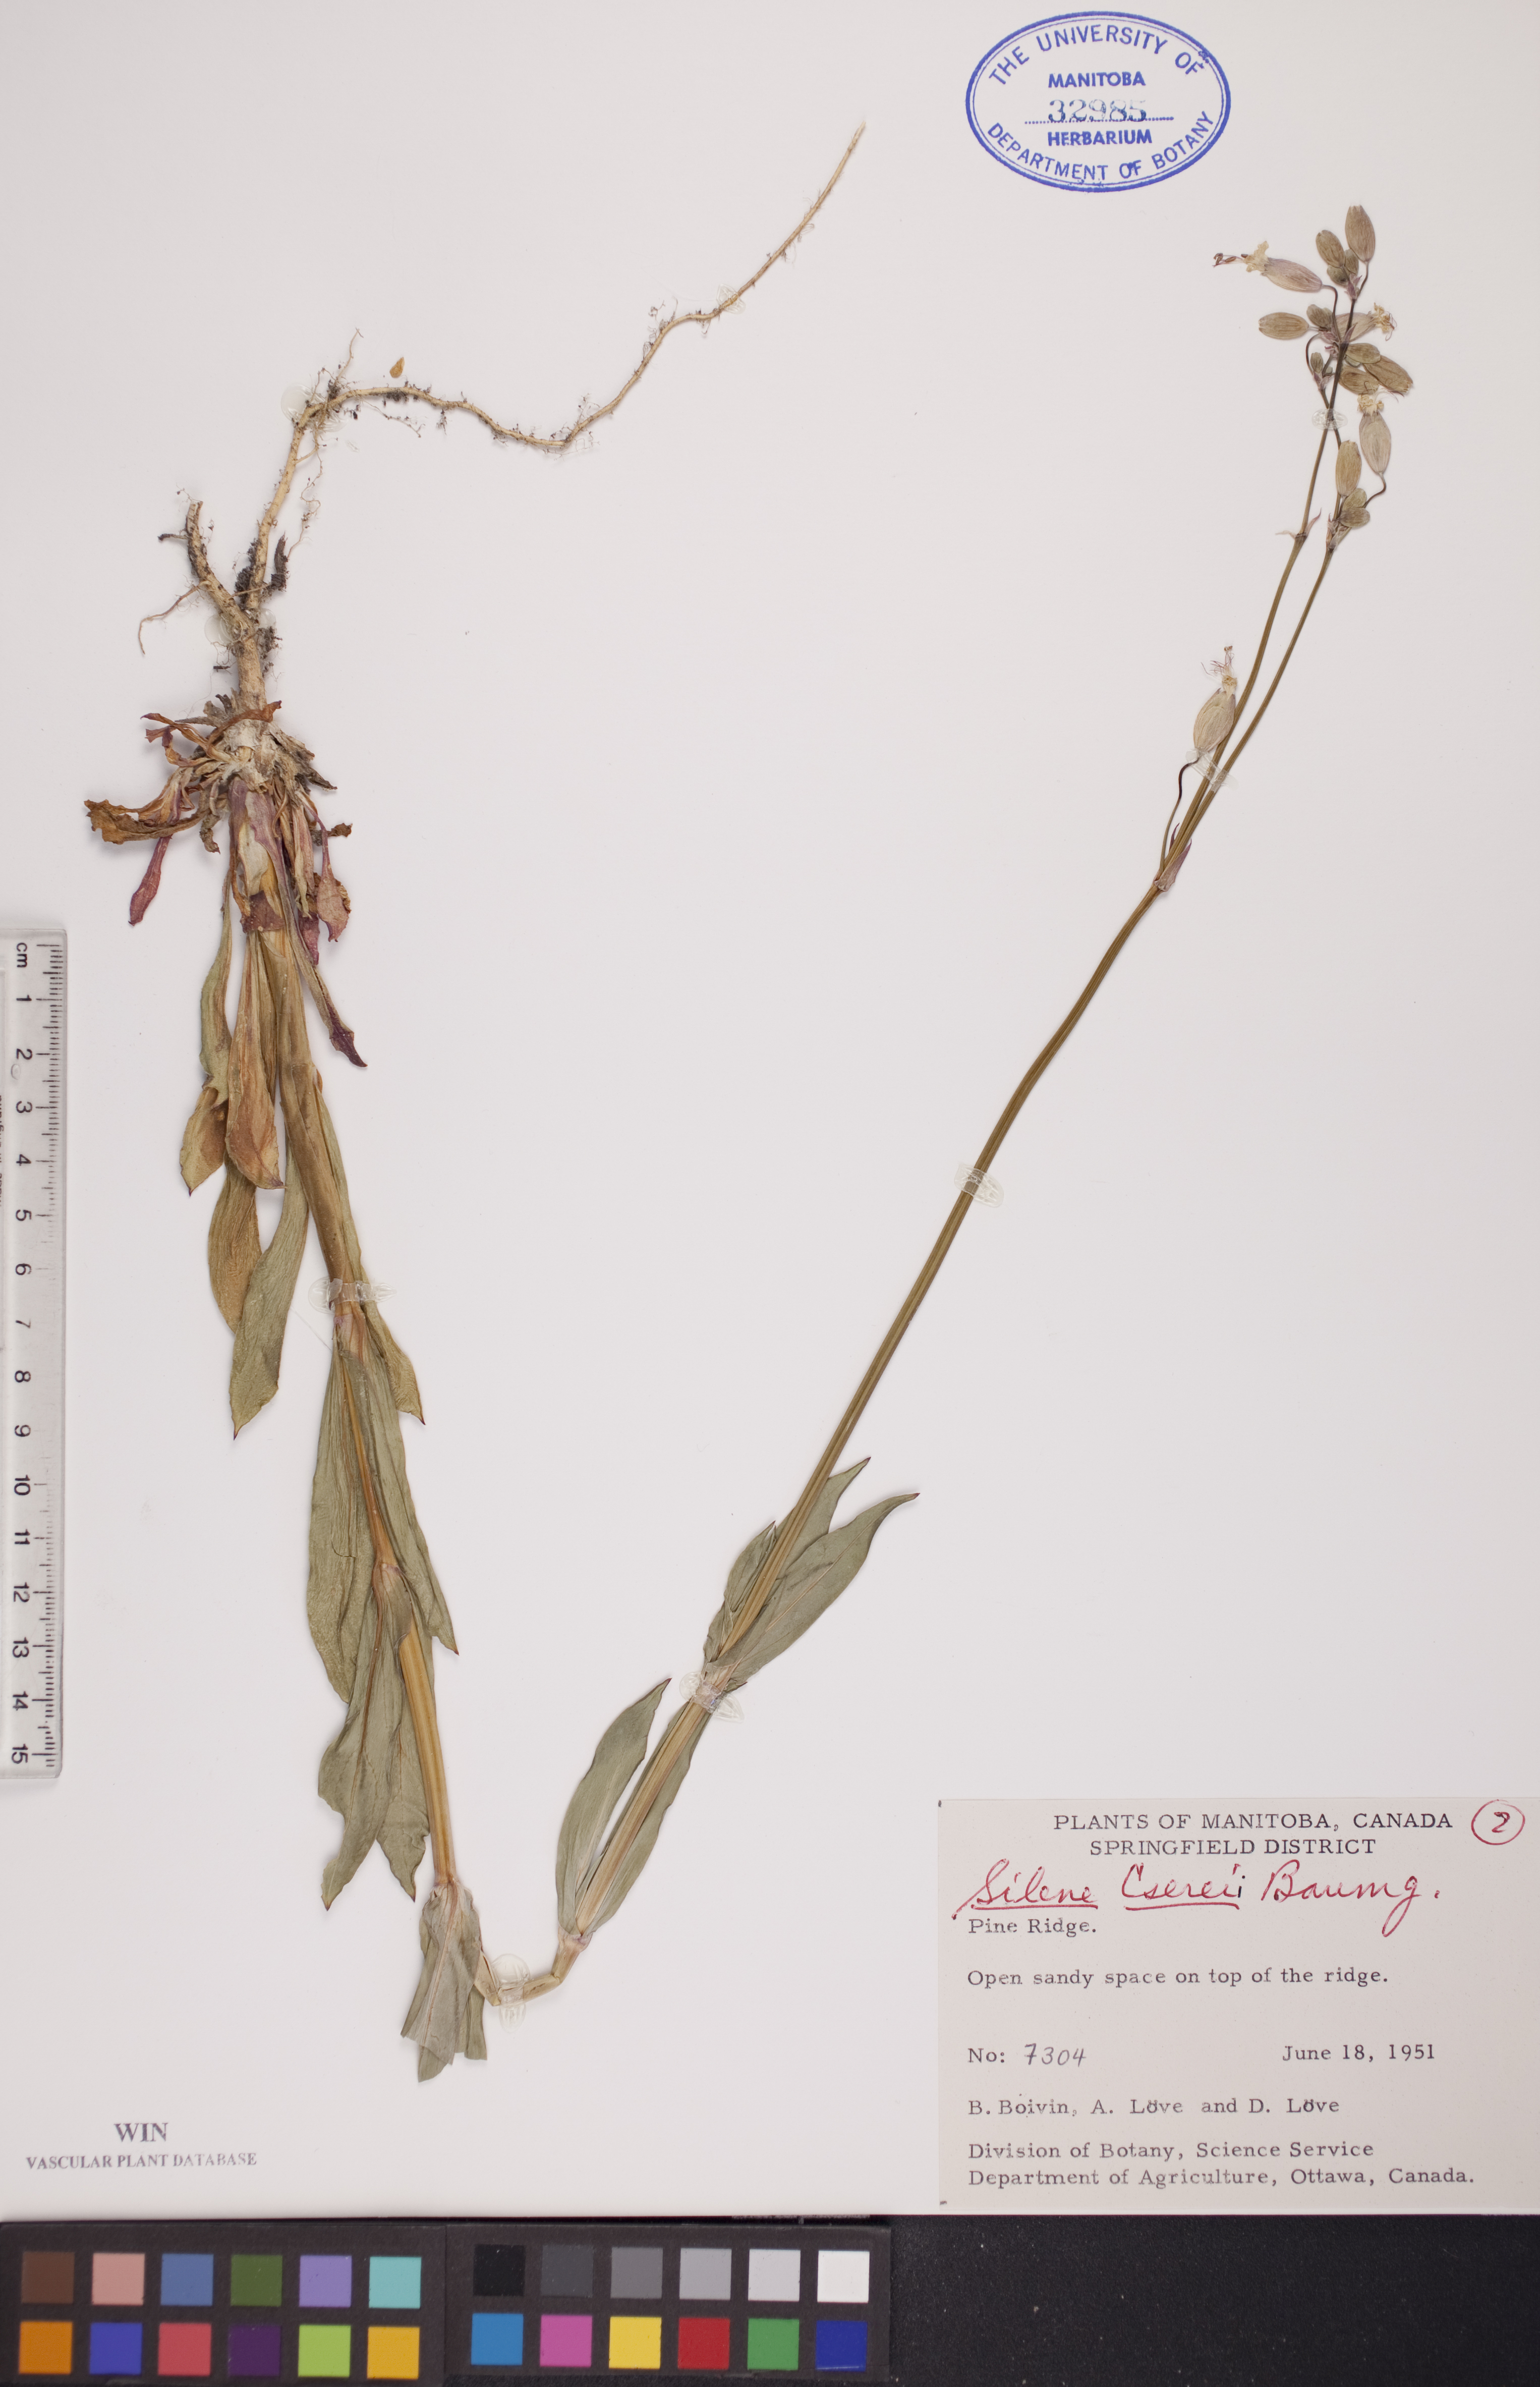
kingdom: Plantae
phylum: Tracheophyta
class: Magnoliopsida
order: Caryophyllales
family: Caryophyllaceae
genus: Silene
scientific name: Silene csereii
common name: Balkan catchfly
